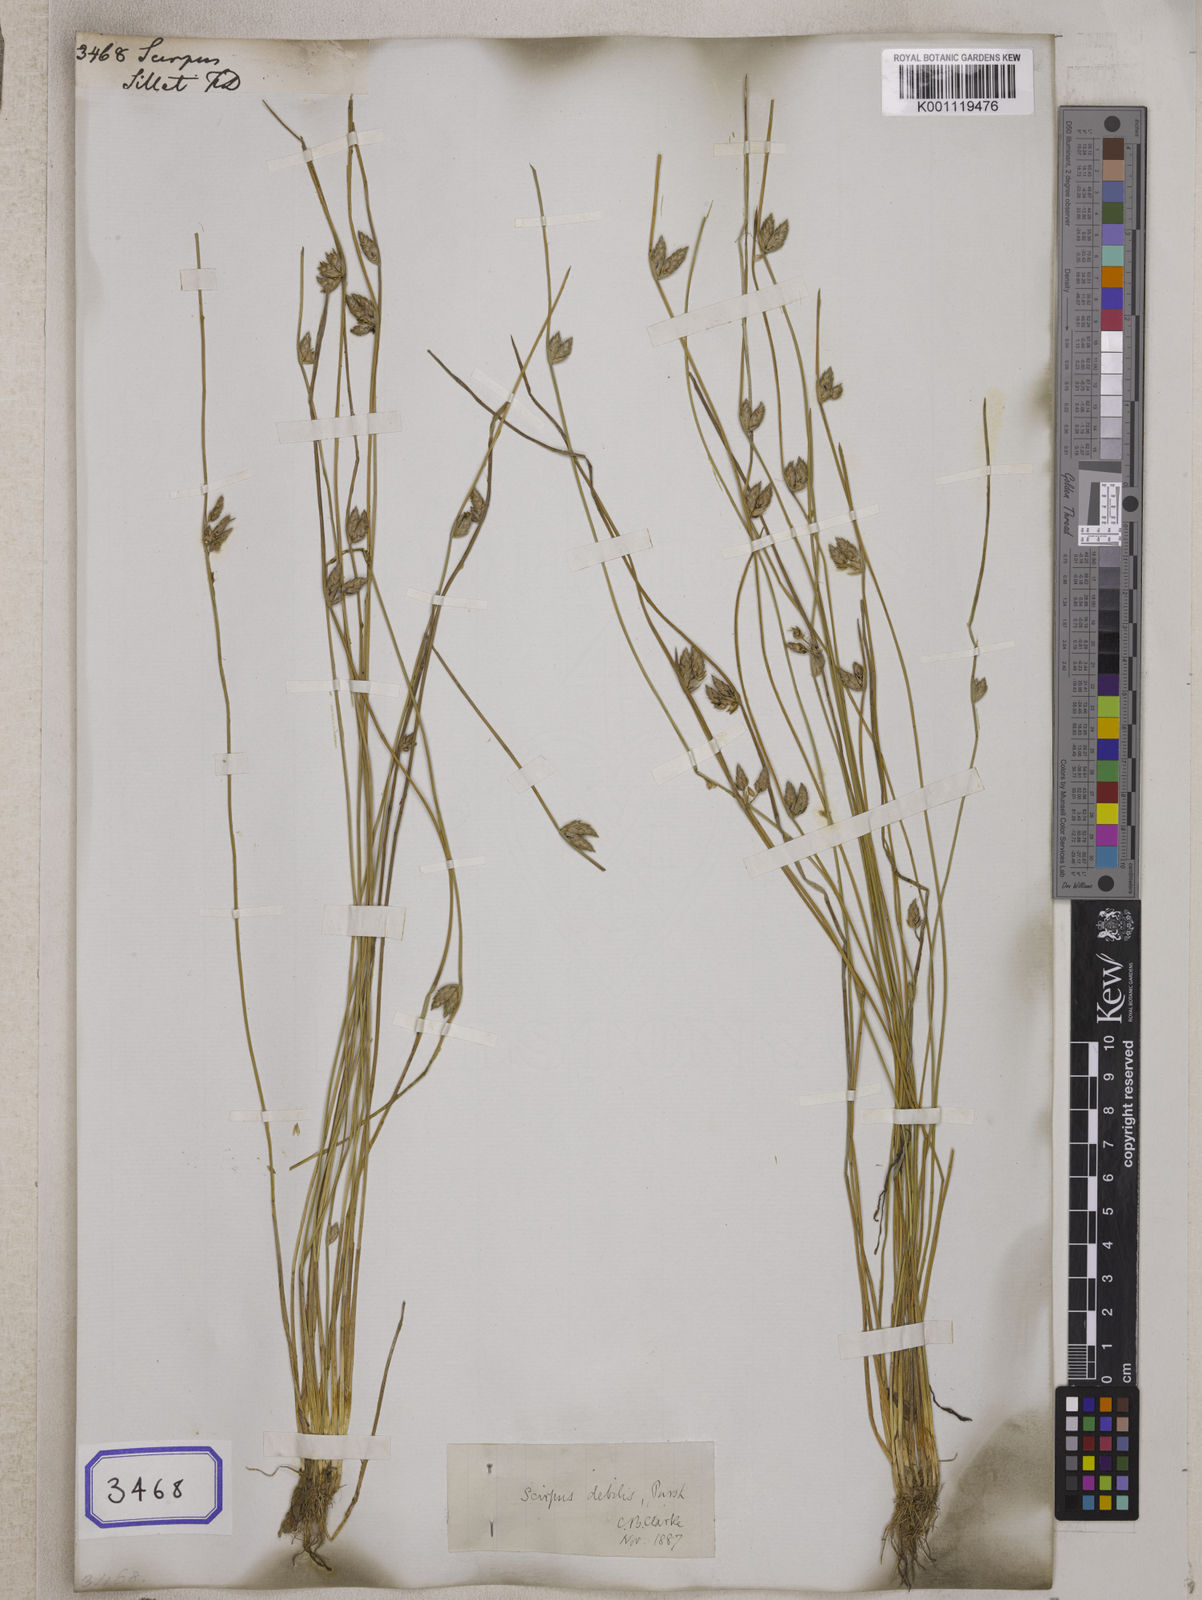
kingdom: Plantae
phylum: Tracheophyta
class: Liliopsida
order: Poales
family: Cyperaceae
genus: Scirpus
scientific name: Scirpus
